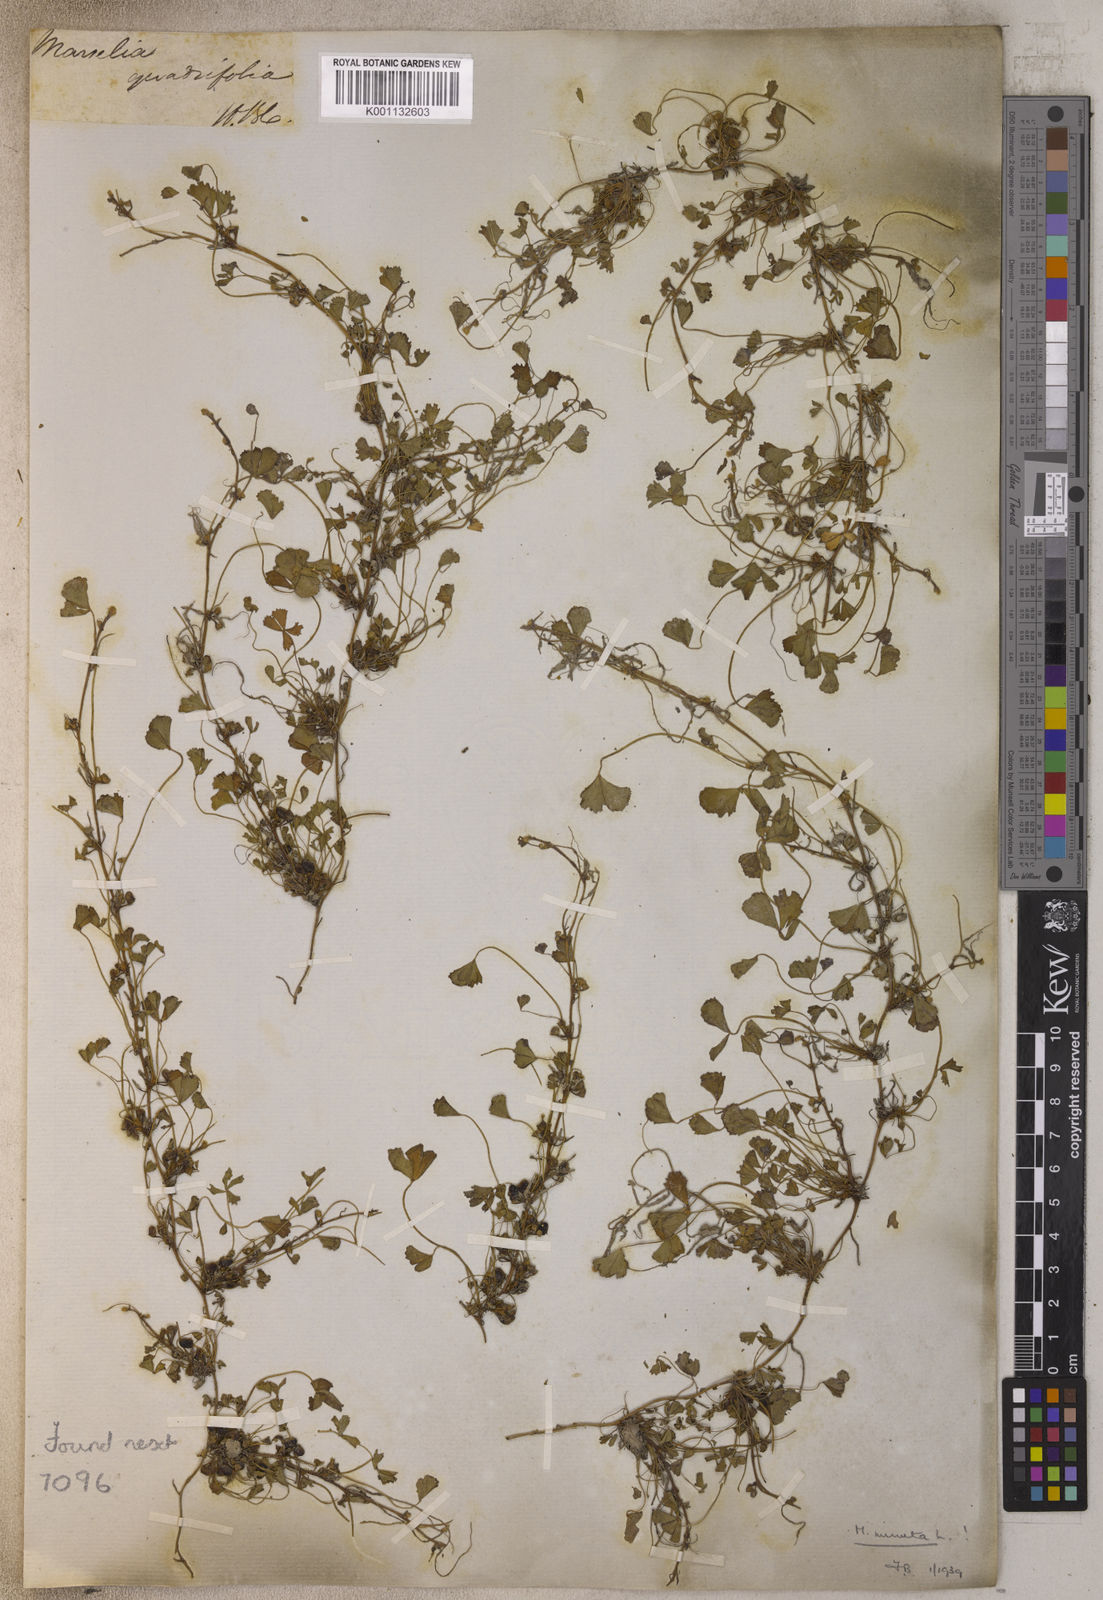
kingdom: Plantae
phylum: Tracheophyta
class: Polypodiopsida
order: Salviniales
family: Marsileaceae
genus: Marsilea
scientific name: Marsilea minuta
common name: Dwarf waterclover
